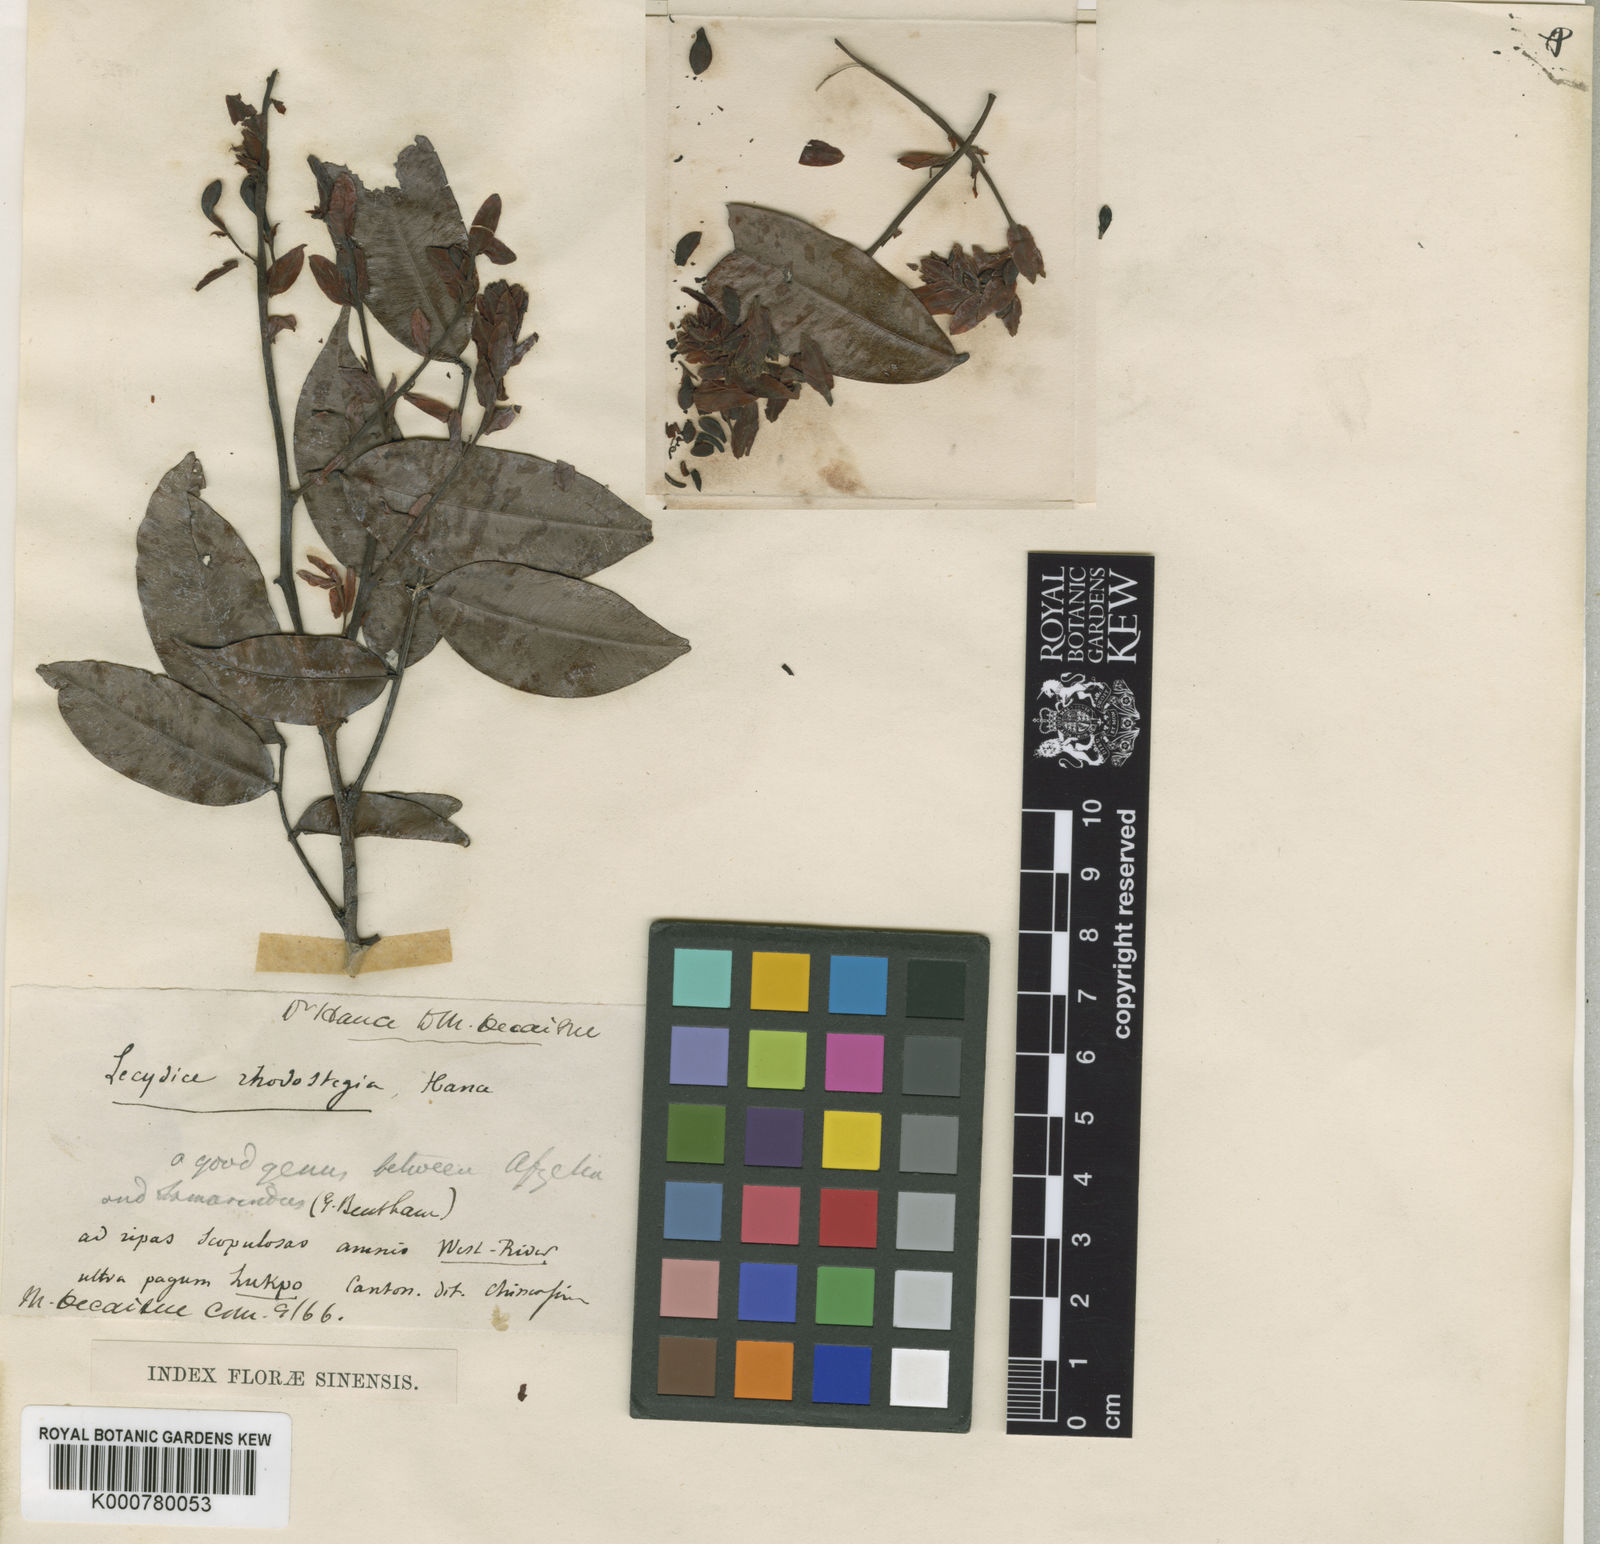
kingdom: Plantae
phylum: Tracheophyta
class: Magnoliopsida
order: Fabales
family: Fabaceae
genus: Lysidice
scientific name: Lysidice rhodostegia
